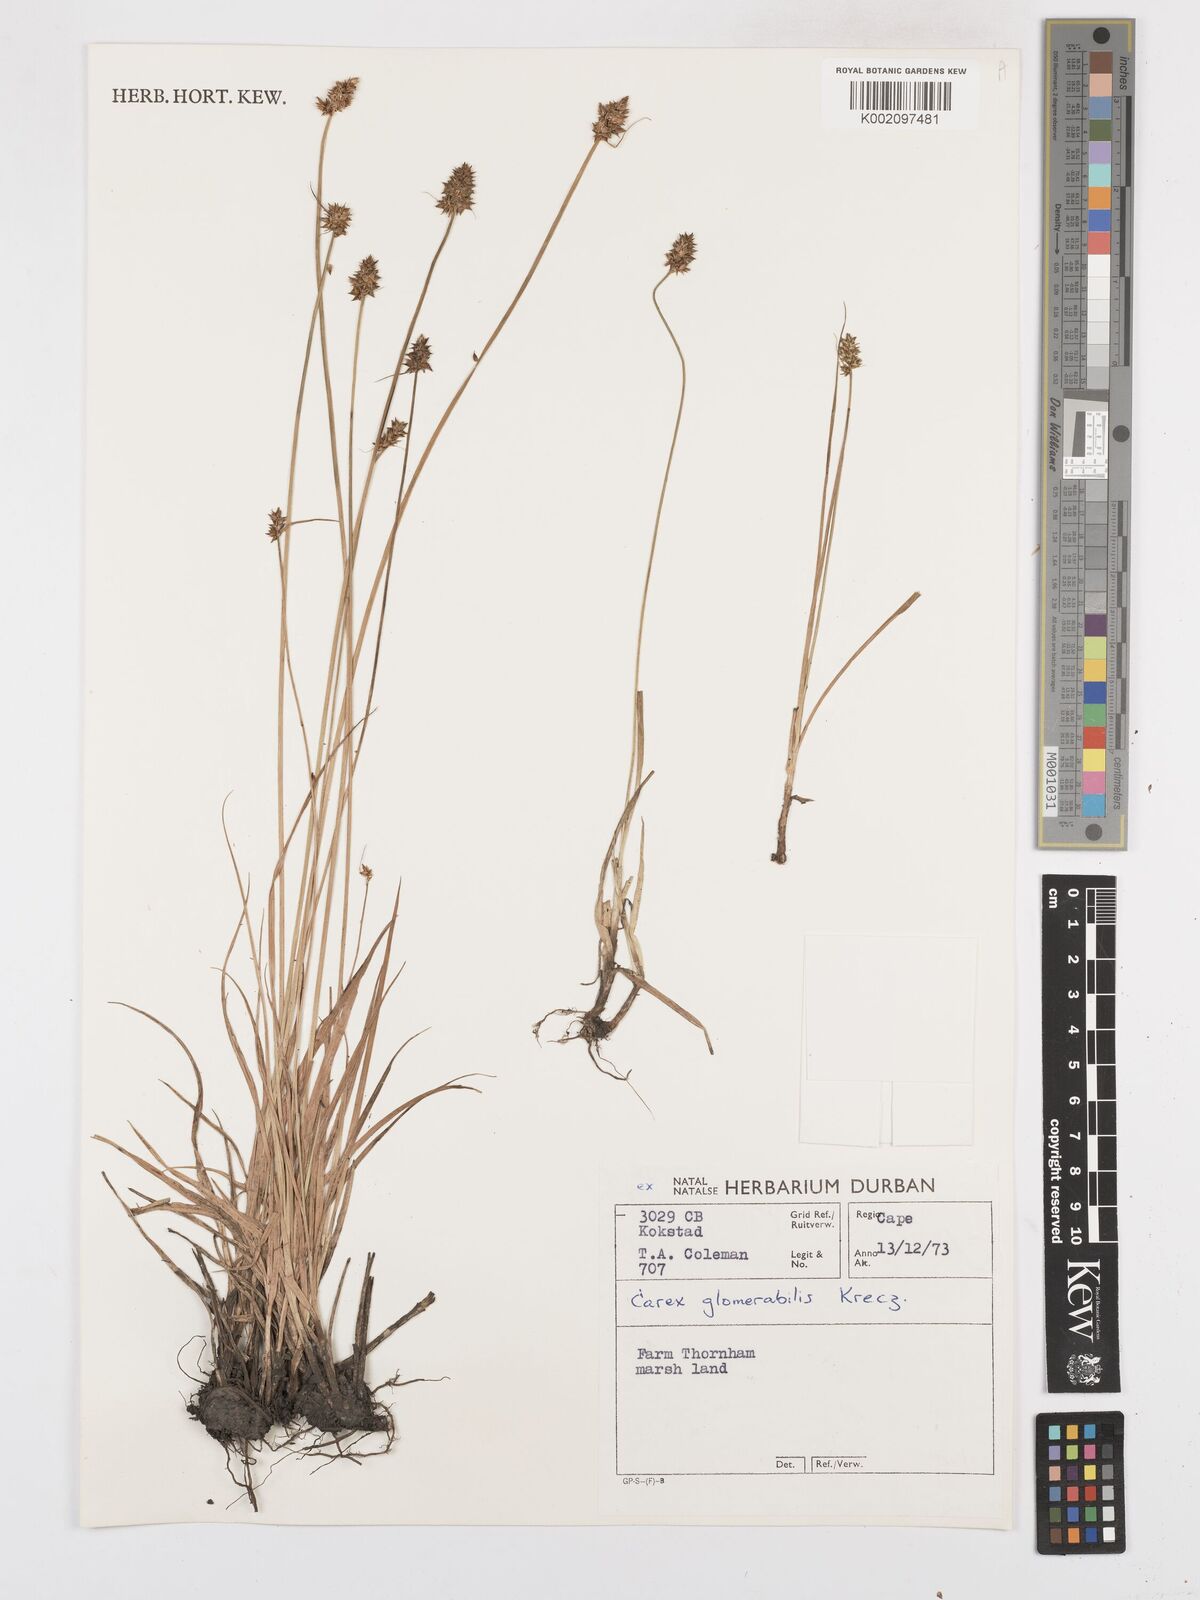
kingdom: Plantae
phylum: Tracheophyta
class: Liliopsida
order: Poales
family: Cyperaceae
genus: Carex
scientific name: Carex glomerata
